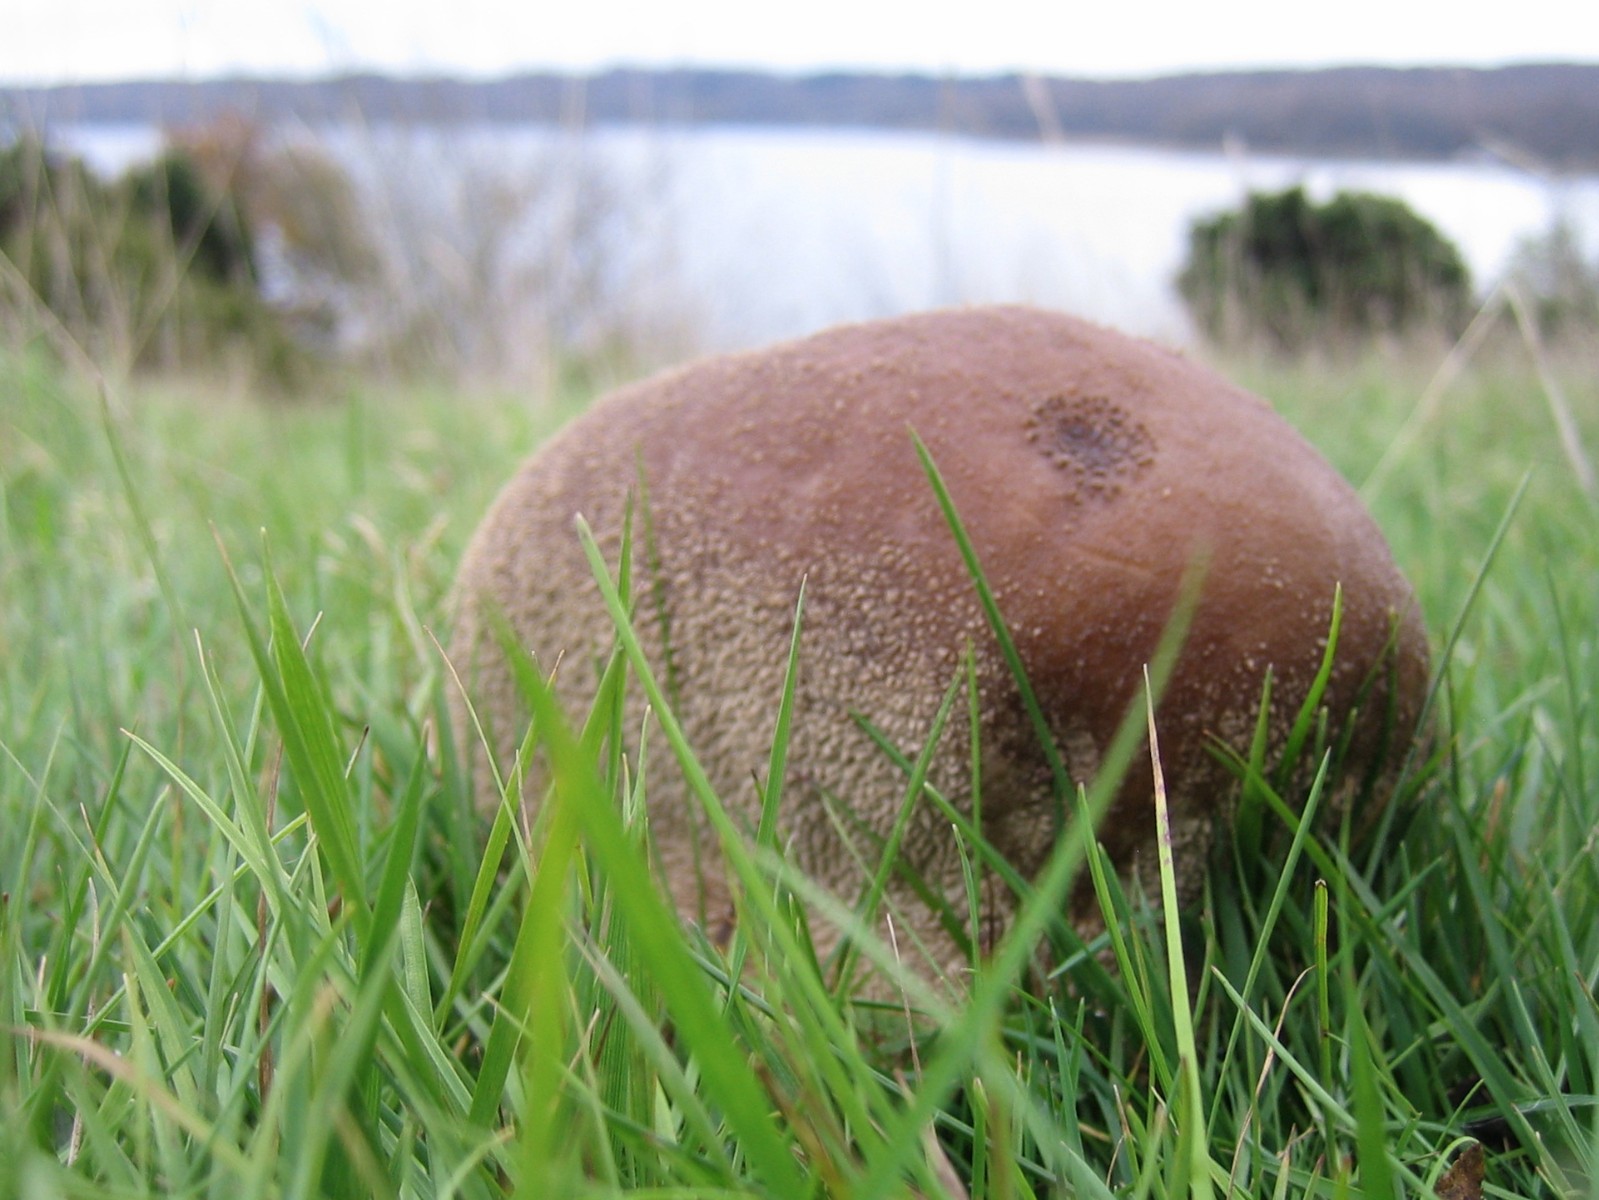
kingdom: Fungi
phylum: Basidiomycota
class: Agaricomycetes
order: Agaricales
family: Lycoperdaceae
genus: Bovistella
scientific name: Bovistella utriformis
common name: skællet støvbold
